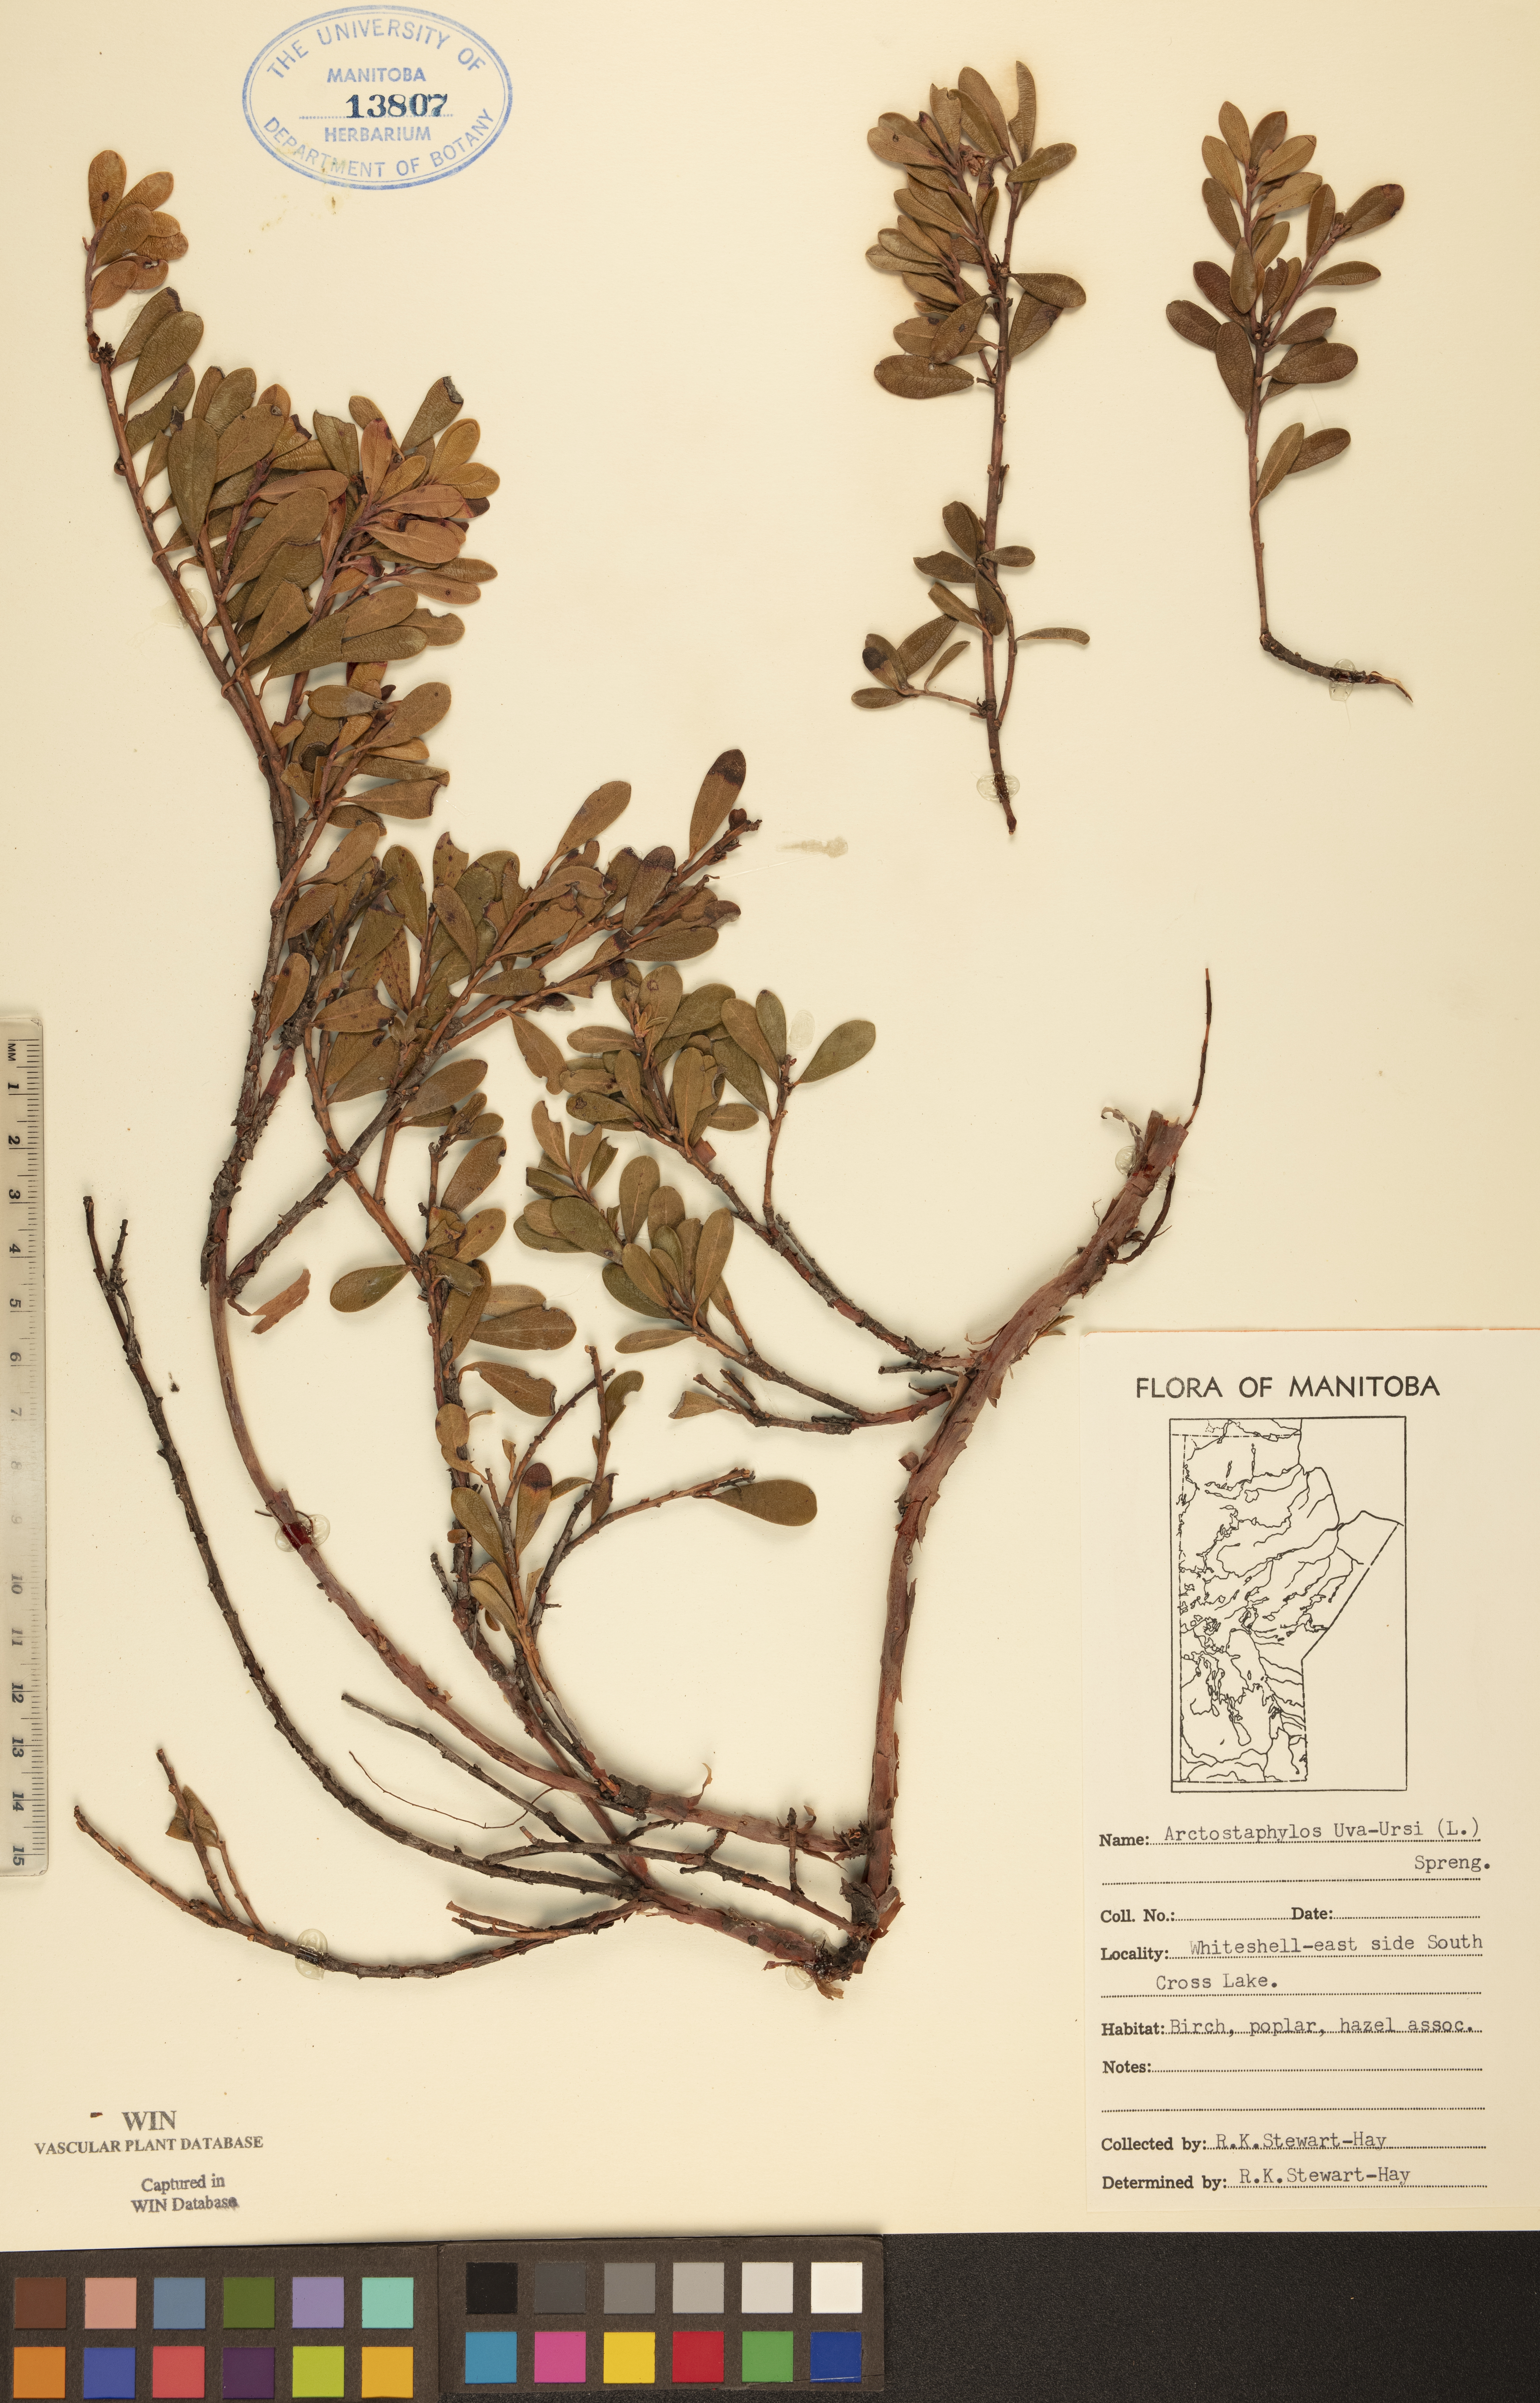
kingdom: Plantae
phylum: Tracheophyta
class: Magnoliopsida
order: Ericales
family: Ericaceae
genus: Arctostaphylos
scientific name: Arctostaphylos uva-ursi
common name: Bearberry
